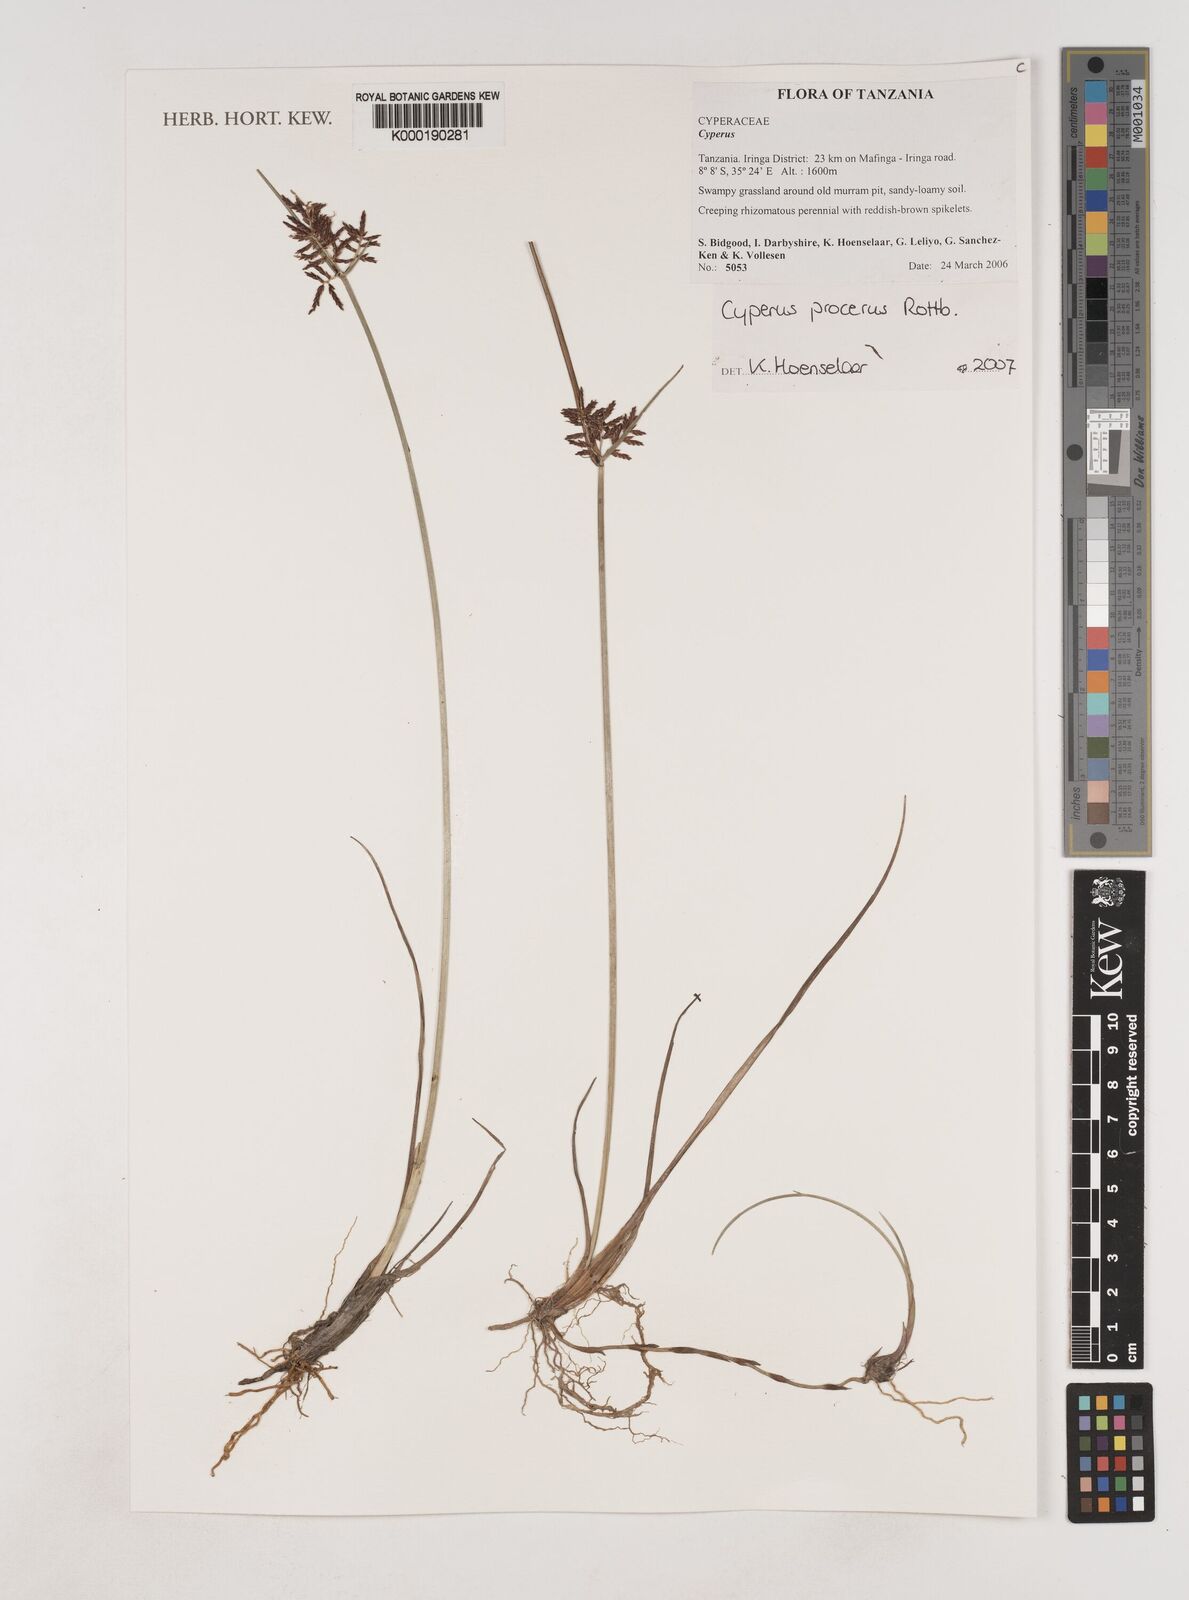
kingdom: Plantae
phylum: Tracheophyta
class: Liliopsida
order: Poales
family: Cyperaceae
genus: Cyperus
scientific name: Cyperus
